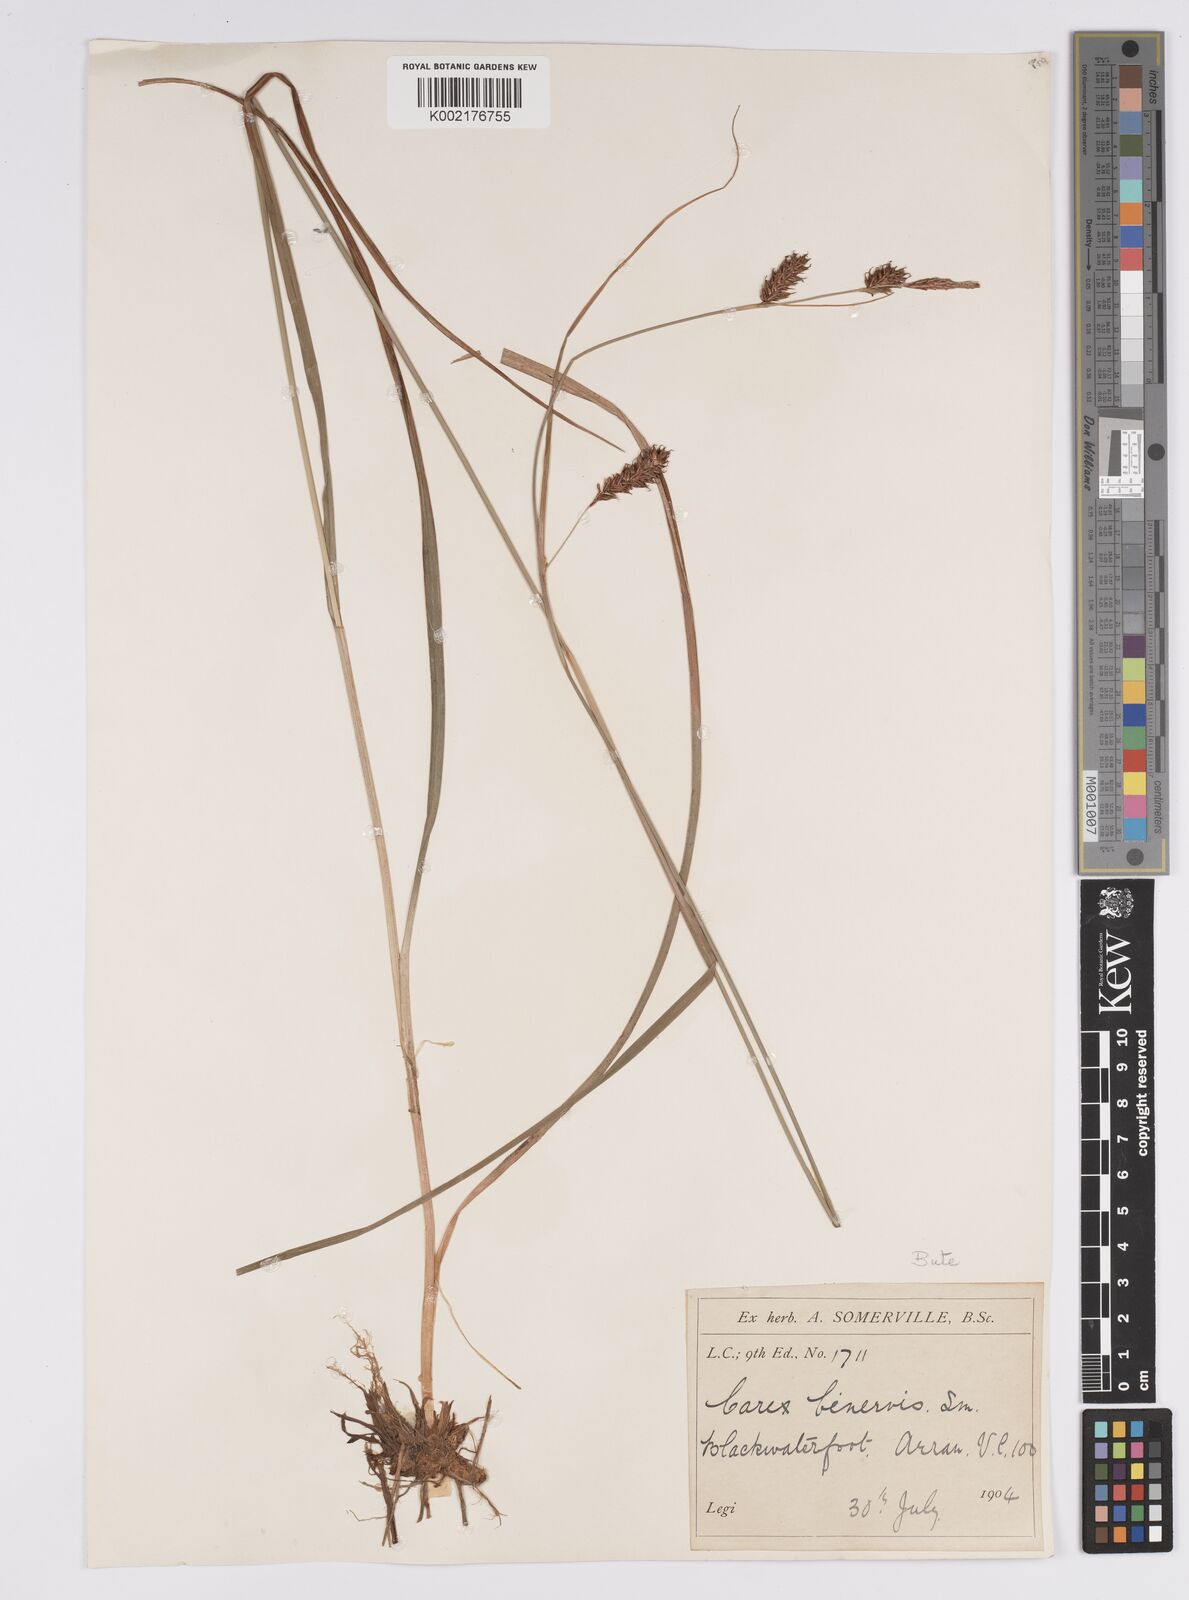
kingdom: Plantae
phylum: Tracheophyta
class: Liliopsida
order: Poales
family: Cyperaceae
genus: Carex
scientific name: Carex binervis
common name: Green-ribbed sedge
